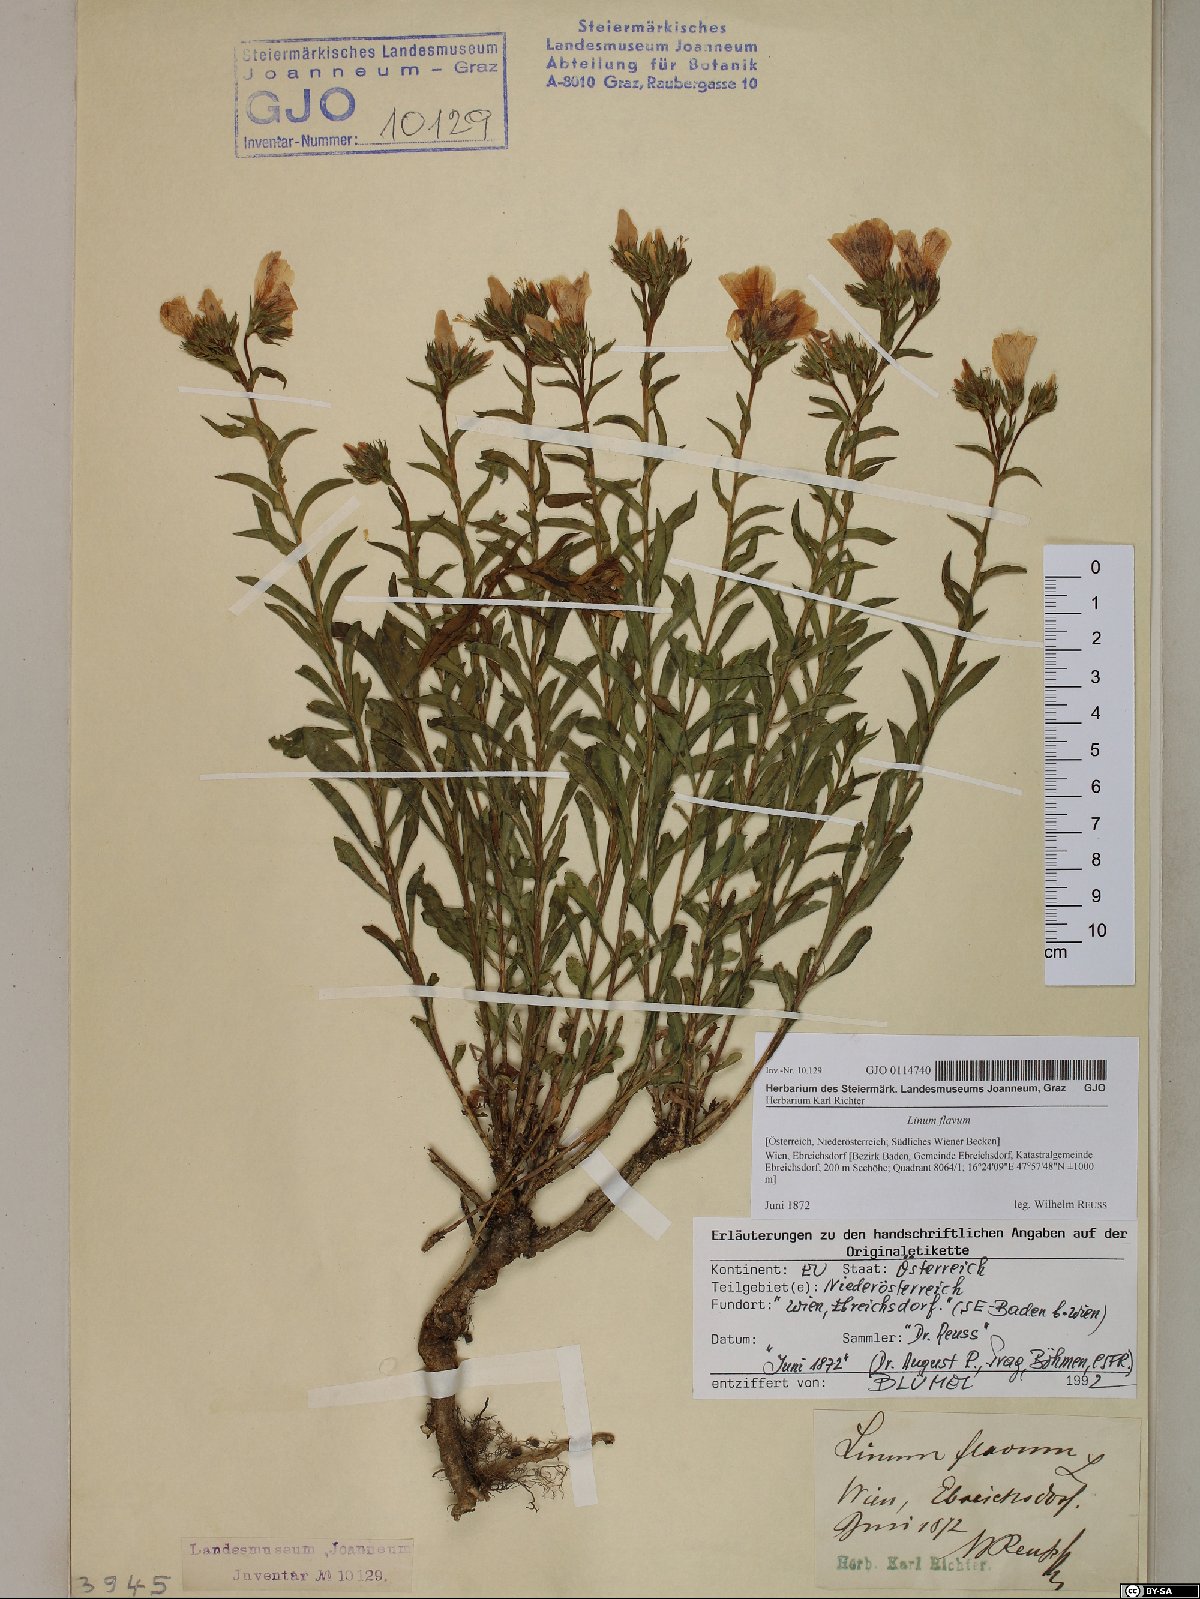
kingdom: Plantae
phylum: Tracheophyta
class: Magnoliopsida
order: Malpighiales
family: Linaceae
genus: Linum
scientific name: Linum flavum
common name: Yellow flax
